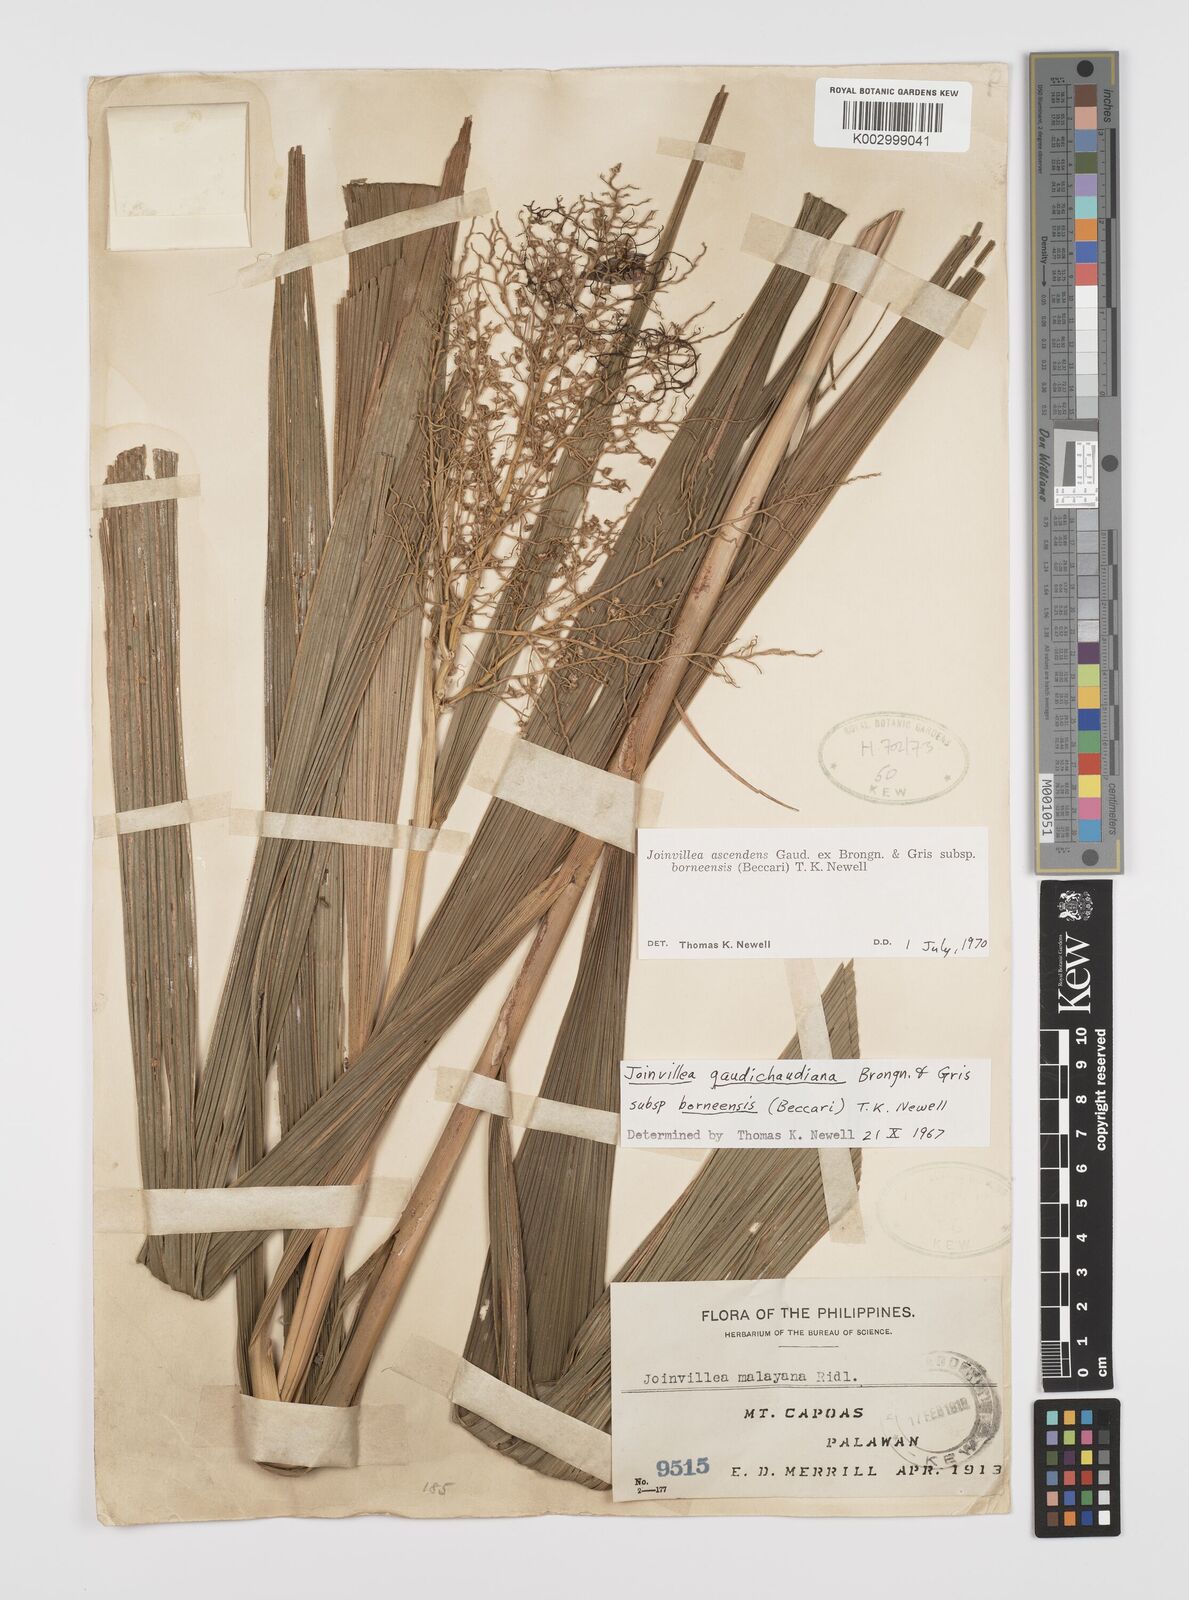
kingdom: Plantae
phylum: Tracheophyta
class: Liliopsida
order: Poales
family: Joinvilleaceae
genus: Joinvillea
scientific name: Joinvillea borneensis
